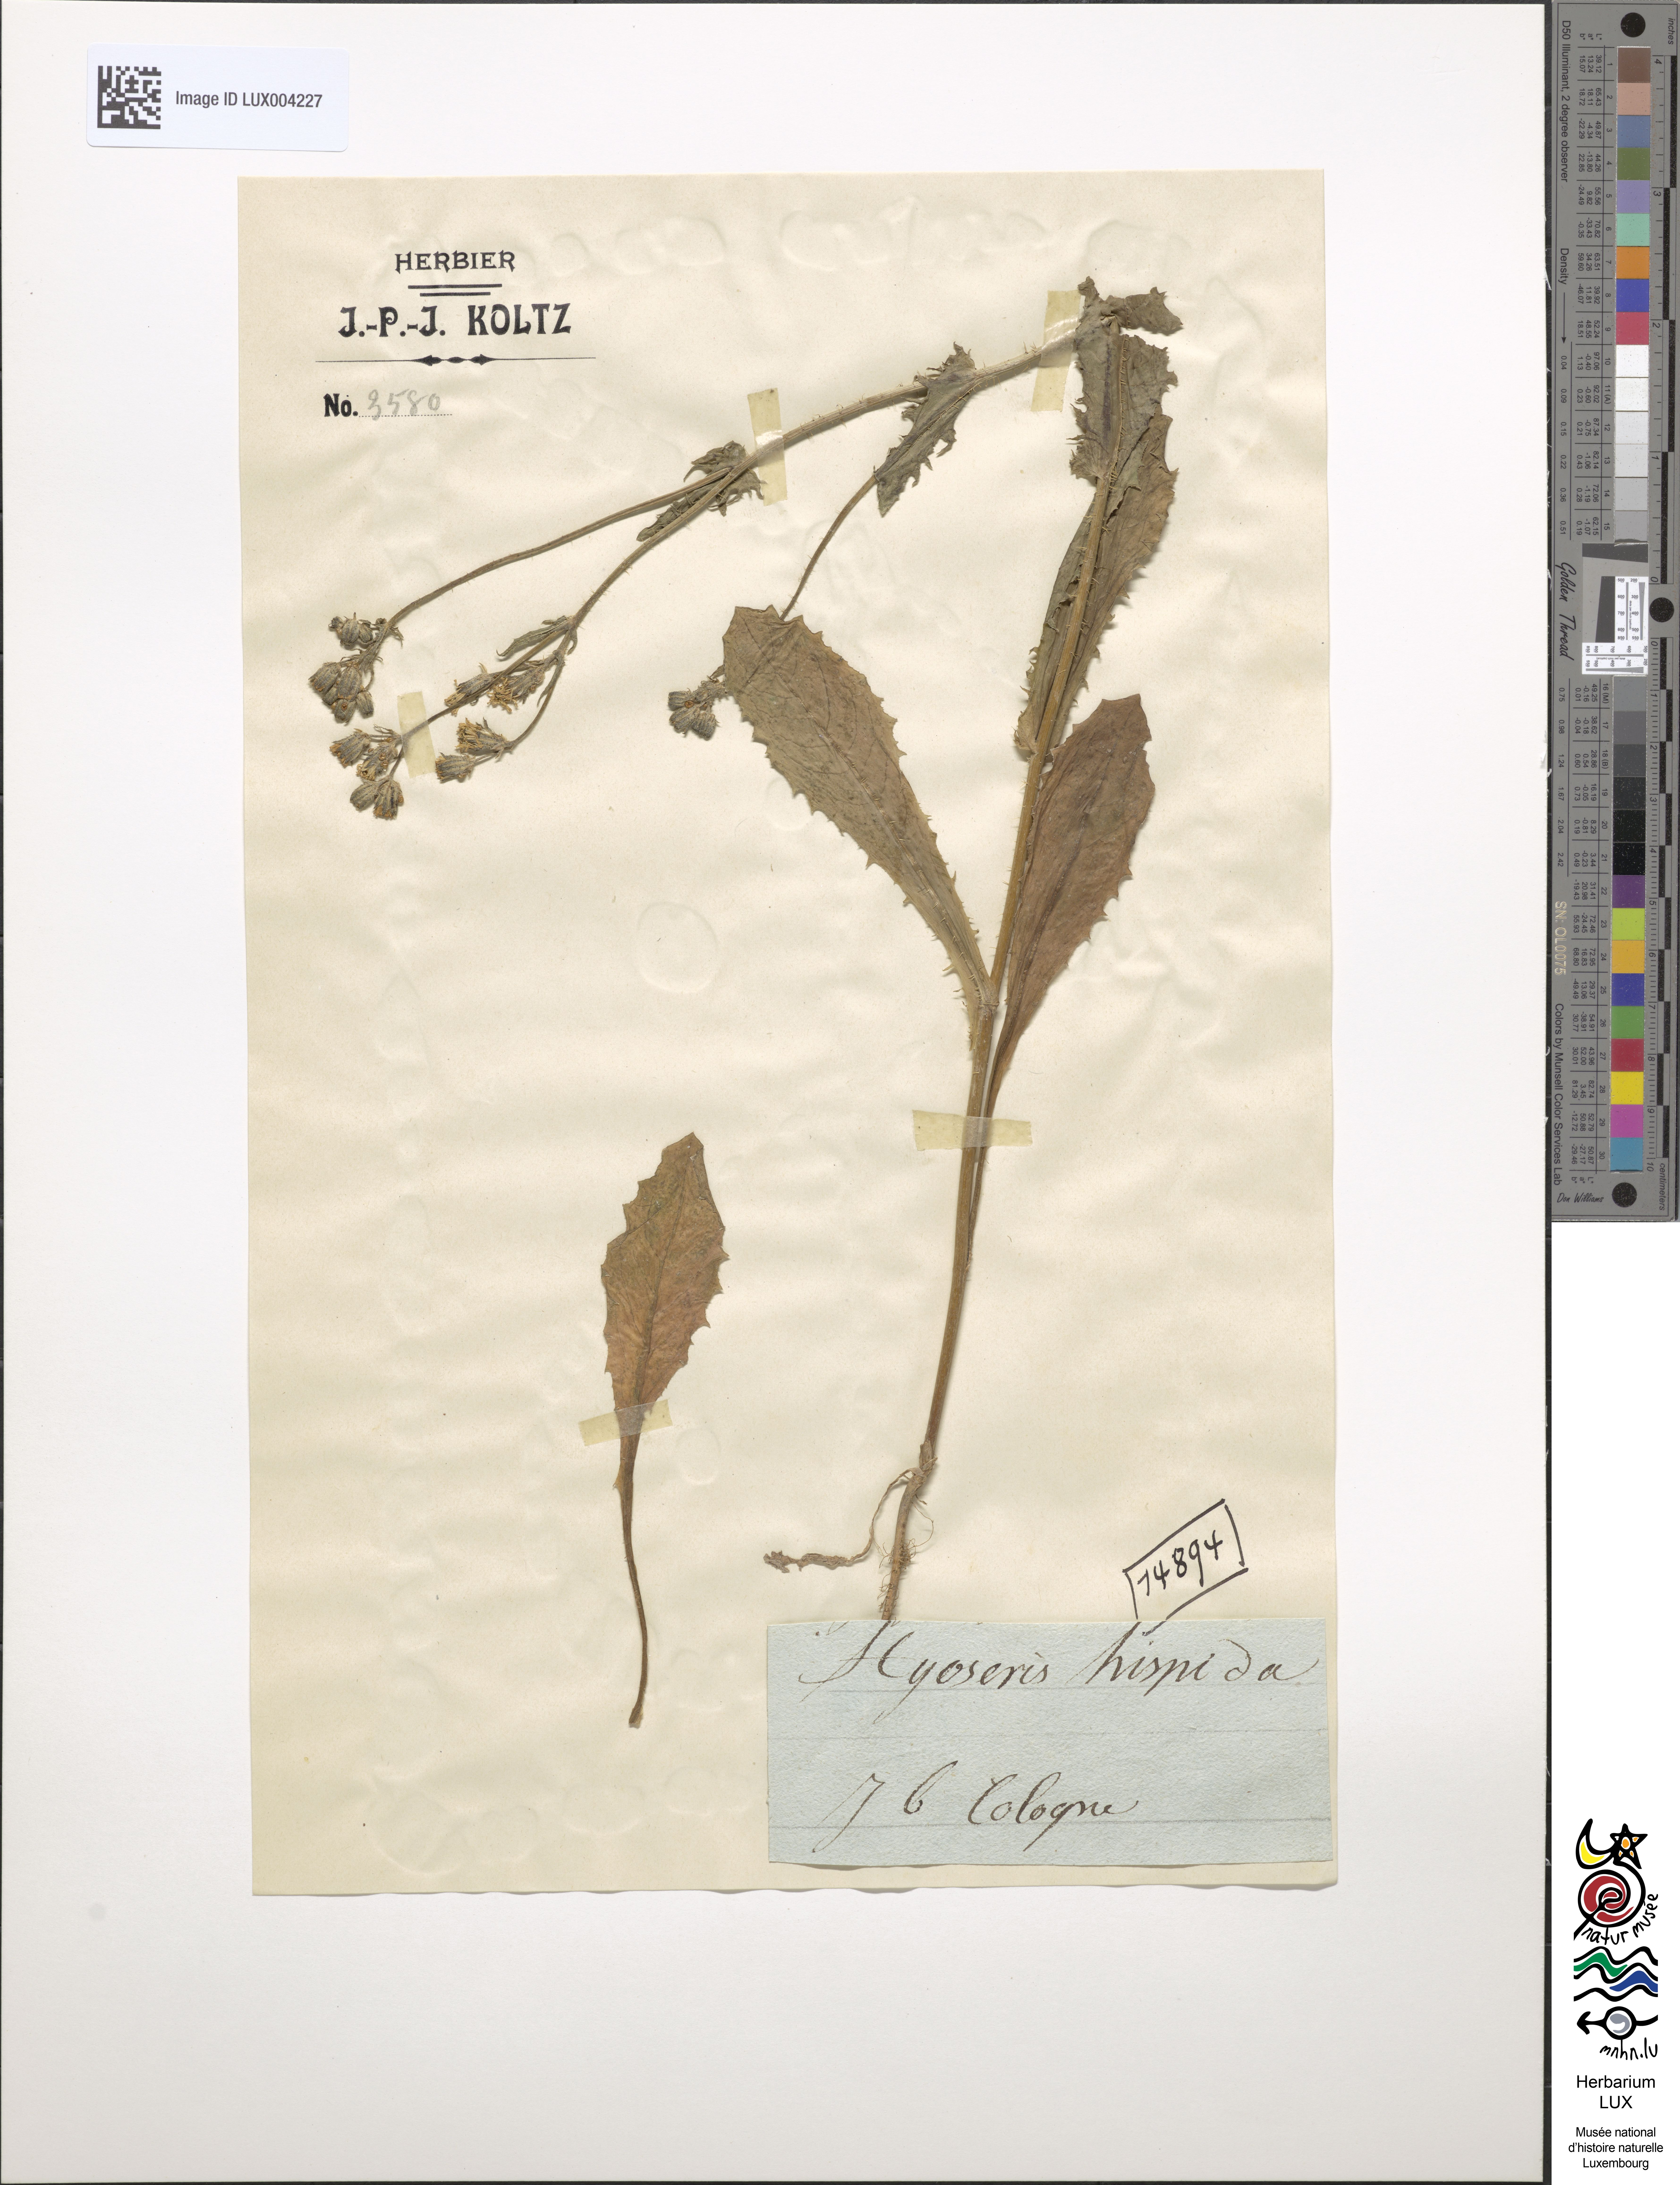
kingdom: Plantae
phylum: Tracheophyta
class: Magnoliopsida
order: Asterales
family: Asteraceae
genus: Thrincia
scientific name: Thrincia maroccana
